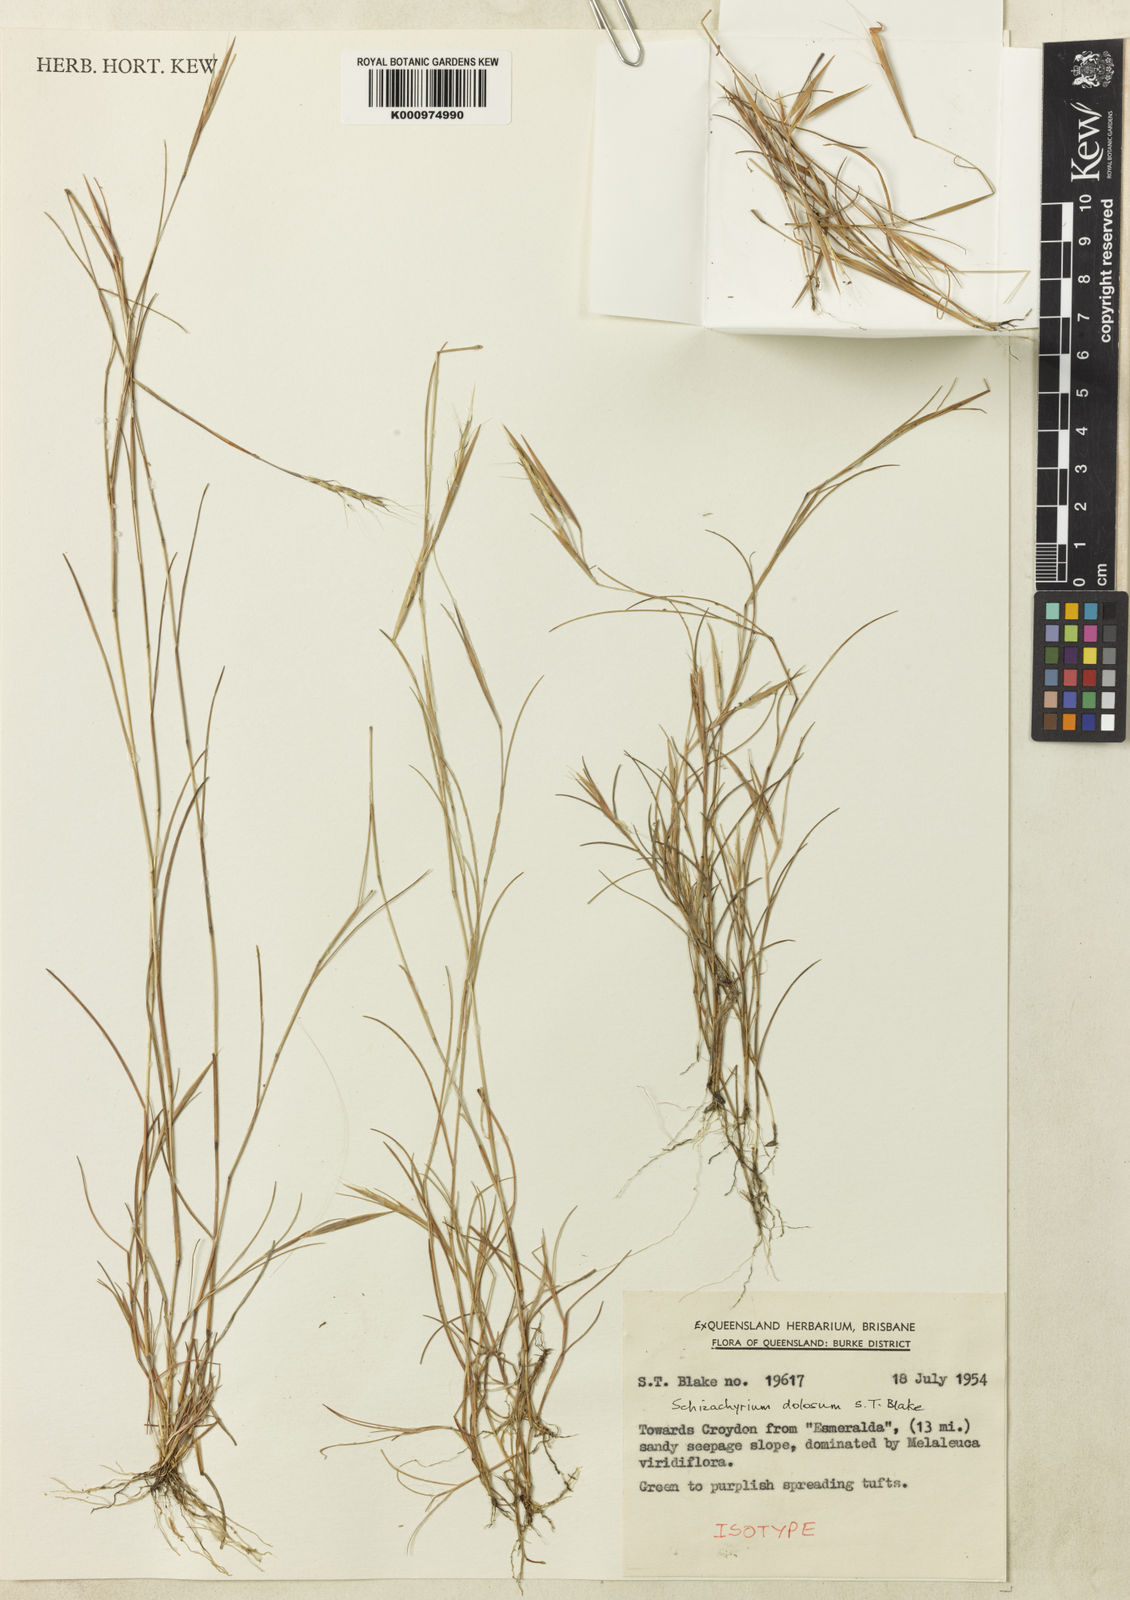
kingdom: Plantae
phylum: Tracheophyta
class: Liliopsida
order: Poales
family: Poaceae
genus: Schizachyrium
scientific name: Schizachyrium dolosum
